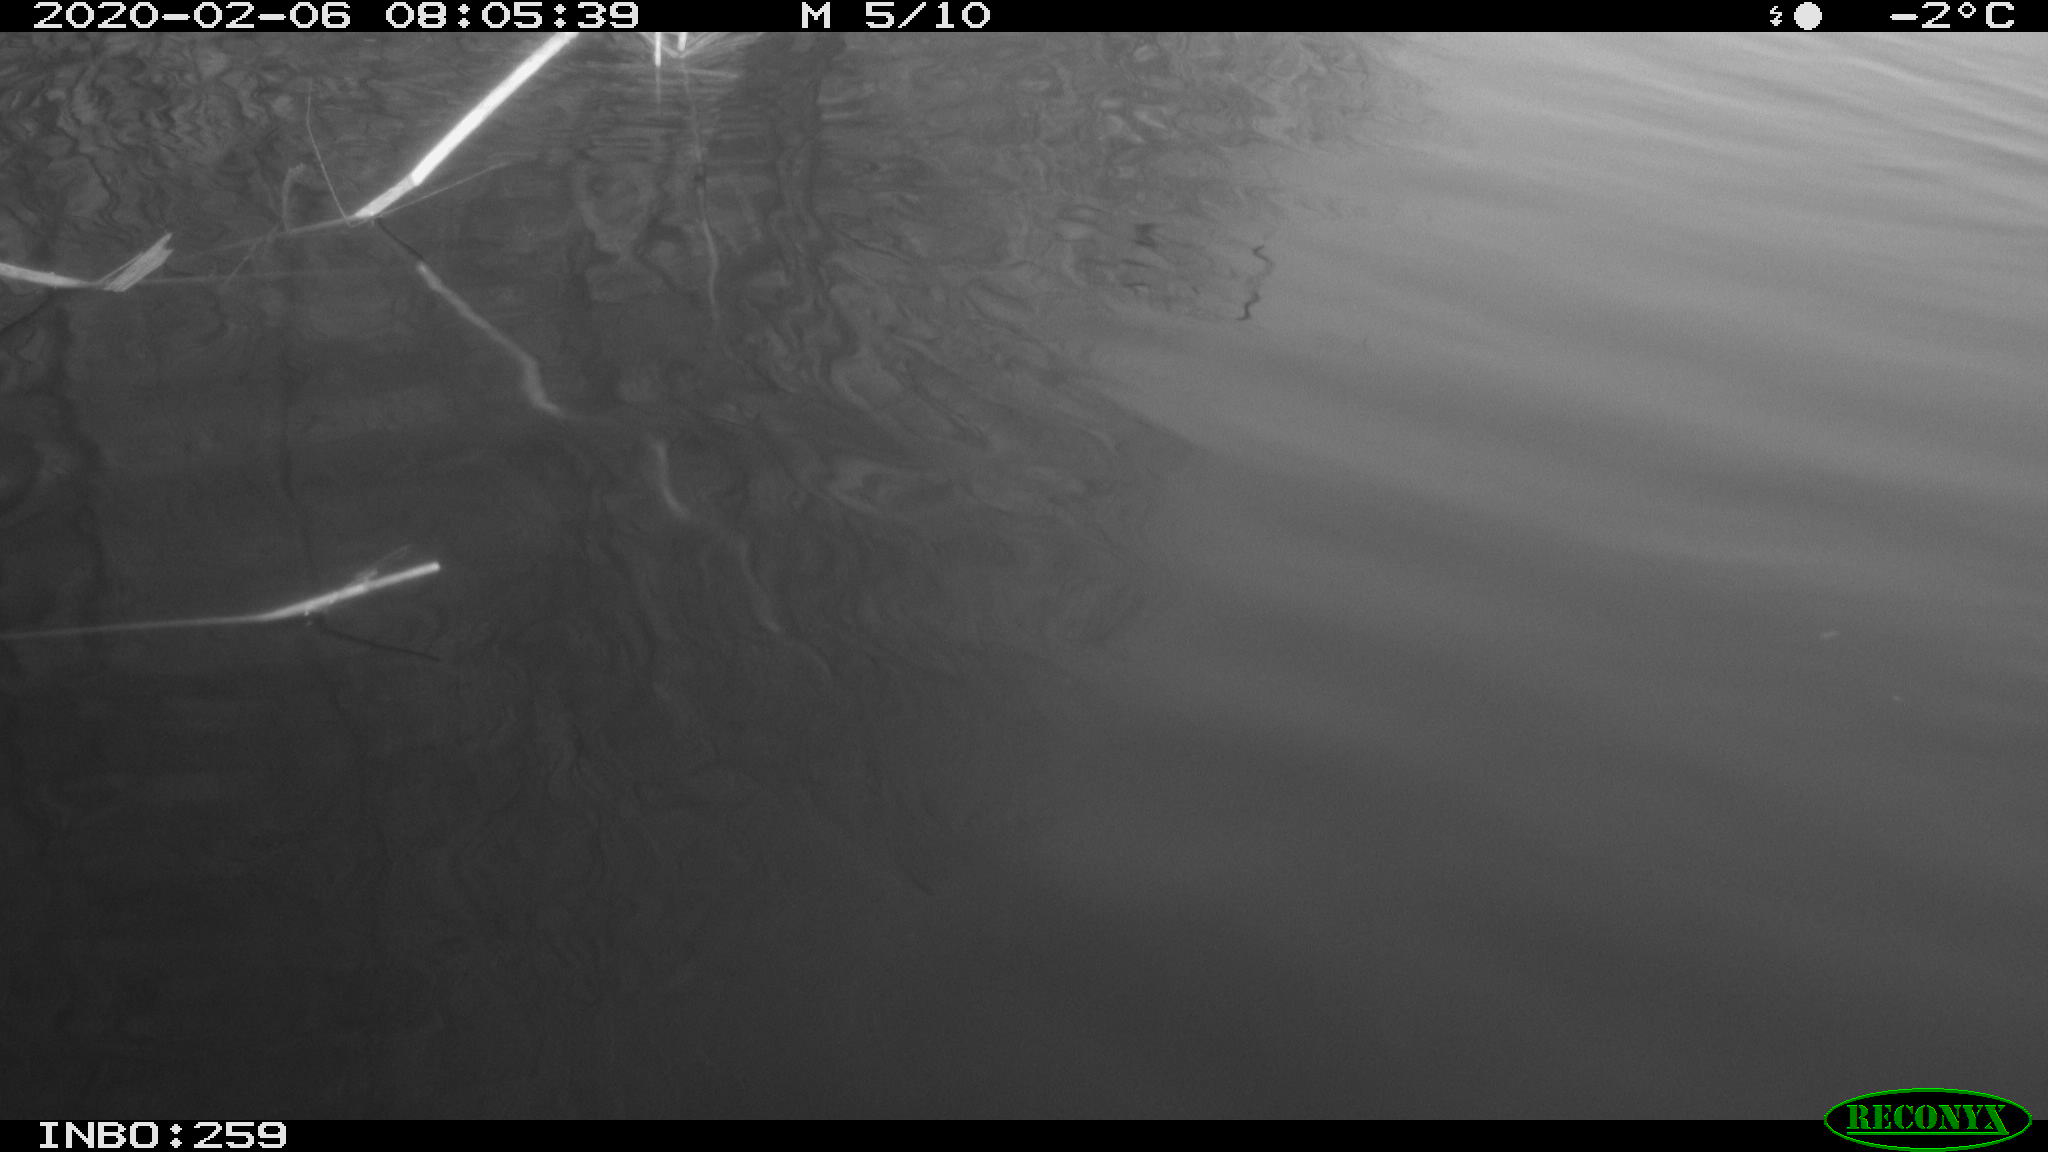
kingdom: Animalia
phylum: Chordata
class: Aves
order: Gruiformes
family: Rallidae
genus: Gallinula
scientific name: Gallinula chloropus
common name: Common moorhen
